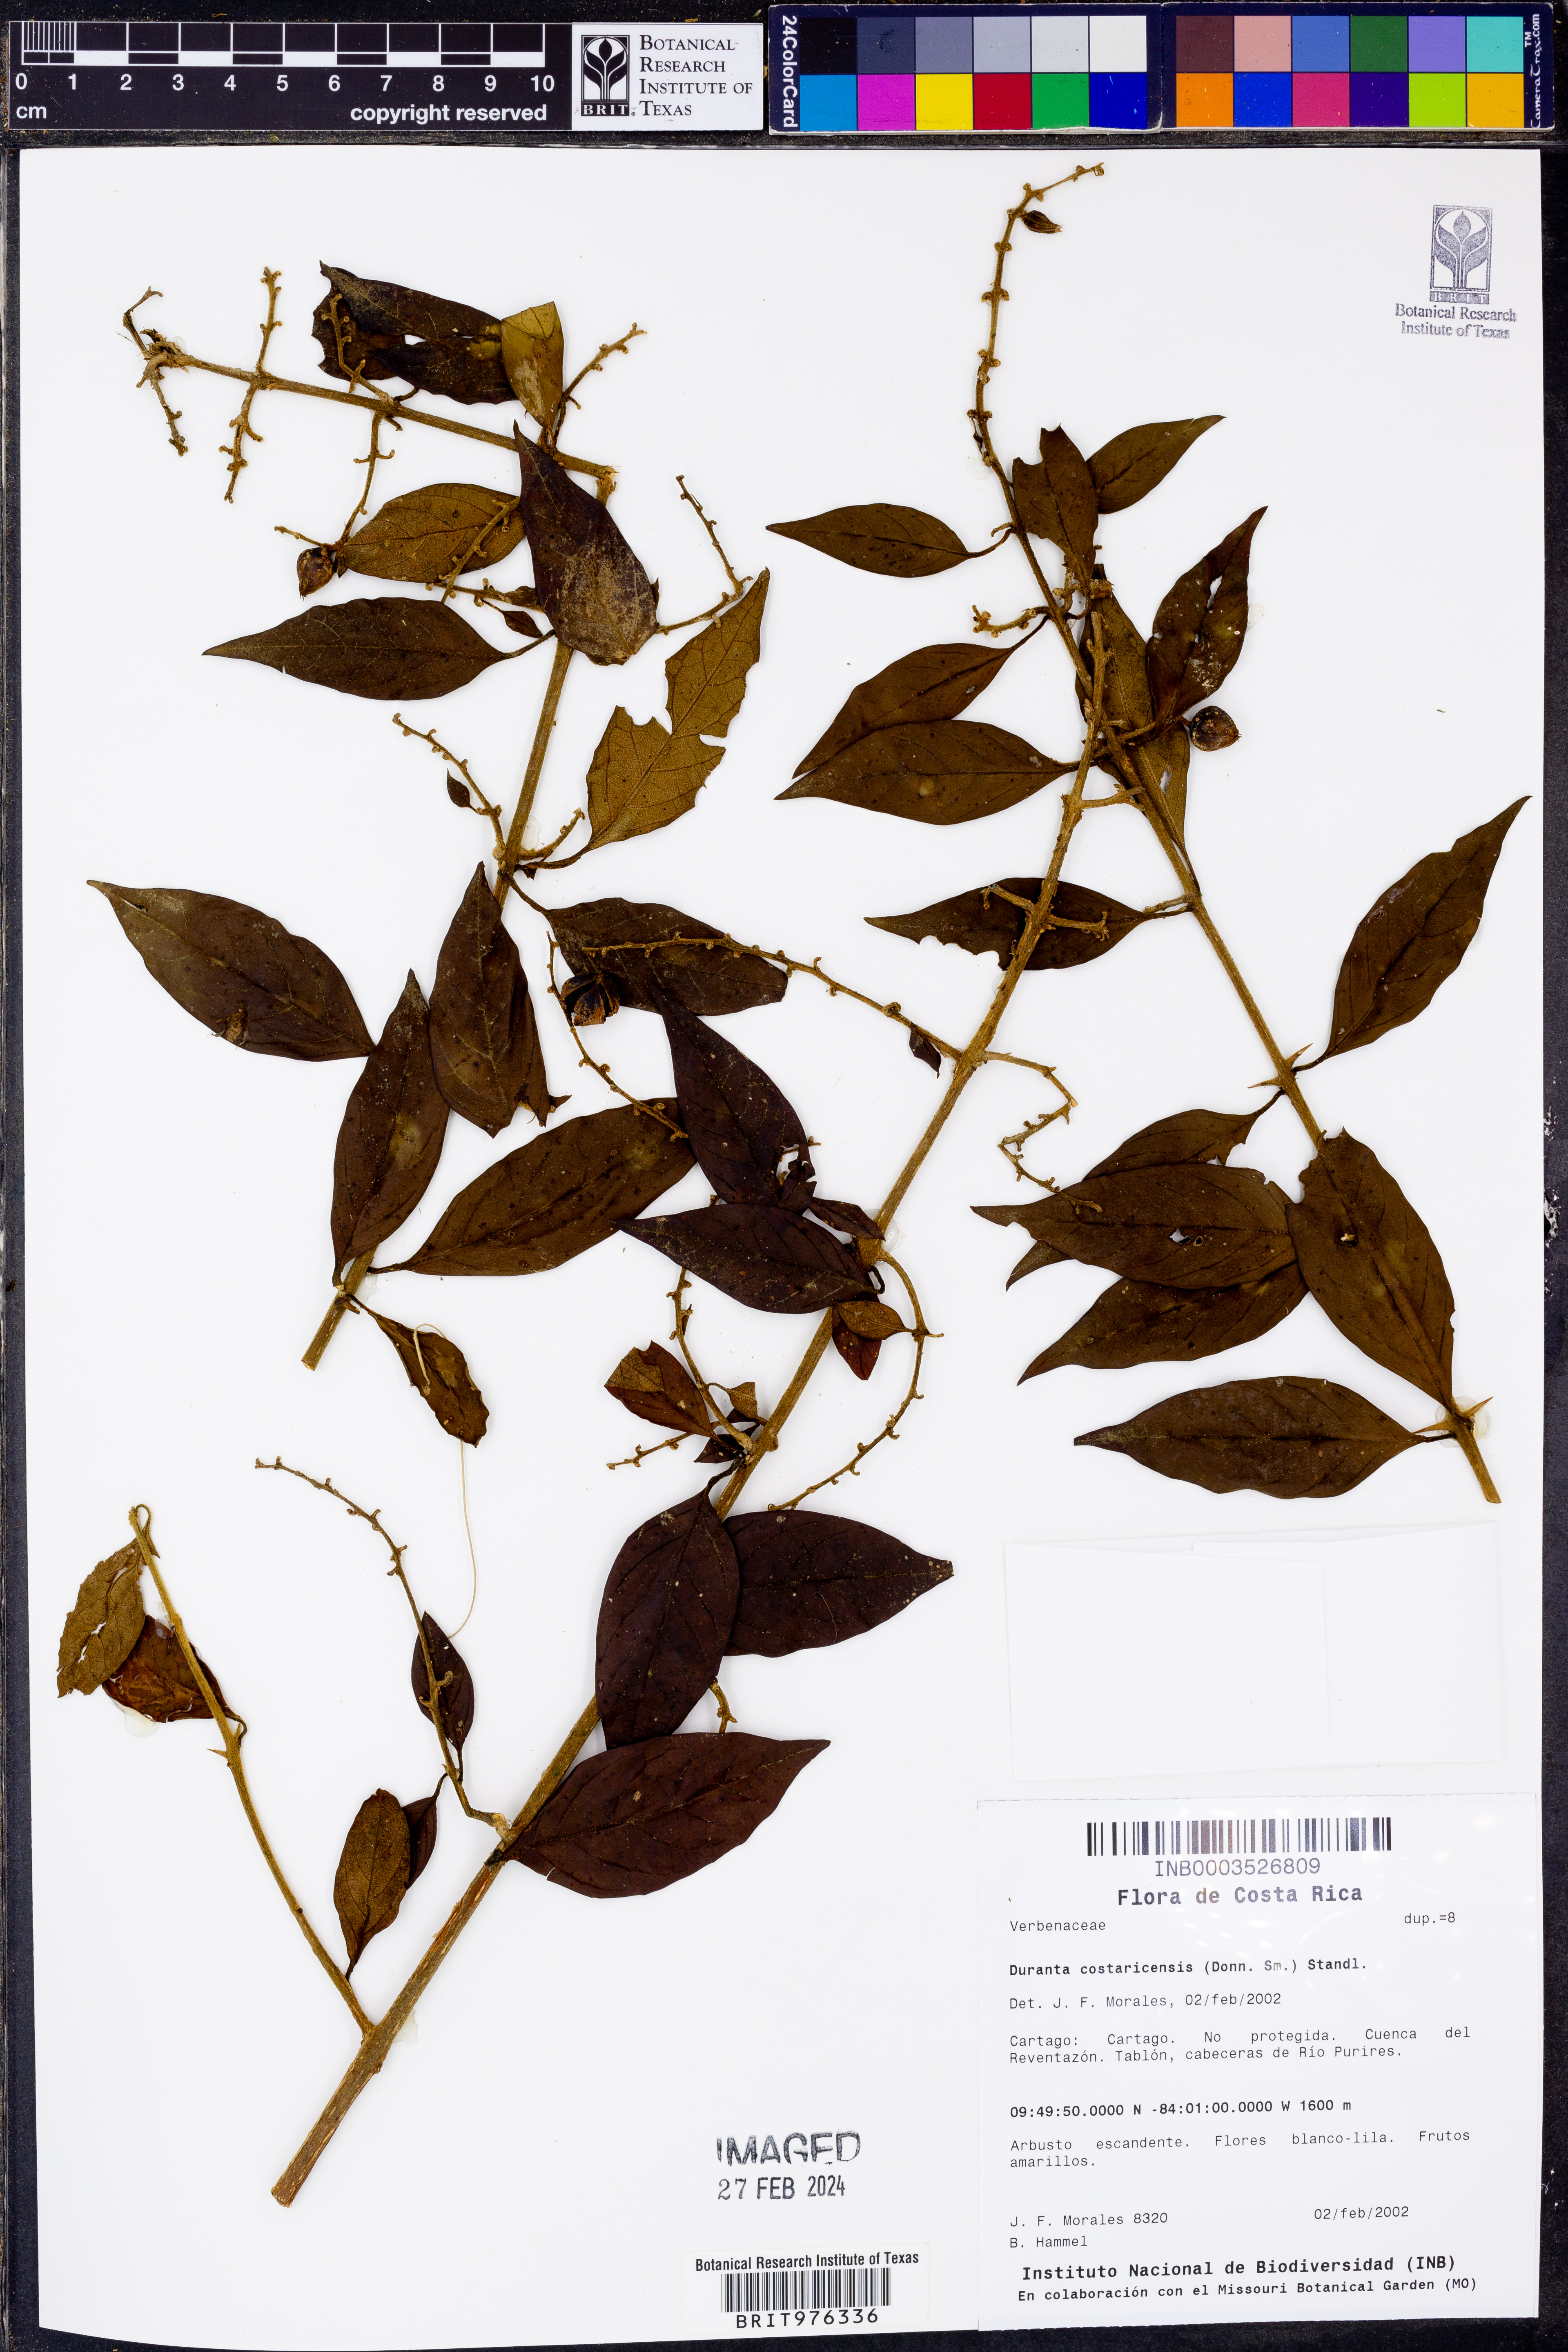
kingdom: Plantae
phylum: Tracheophyta
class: Magnoliopsida
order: Lamiales
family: Verbenaceae
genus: Duranta
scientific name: Duranta
